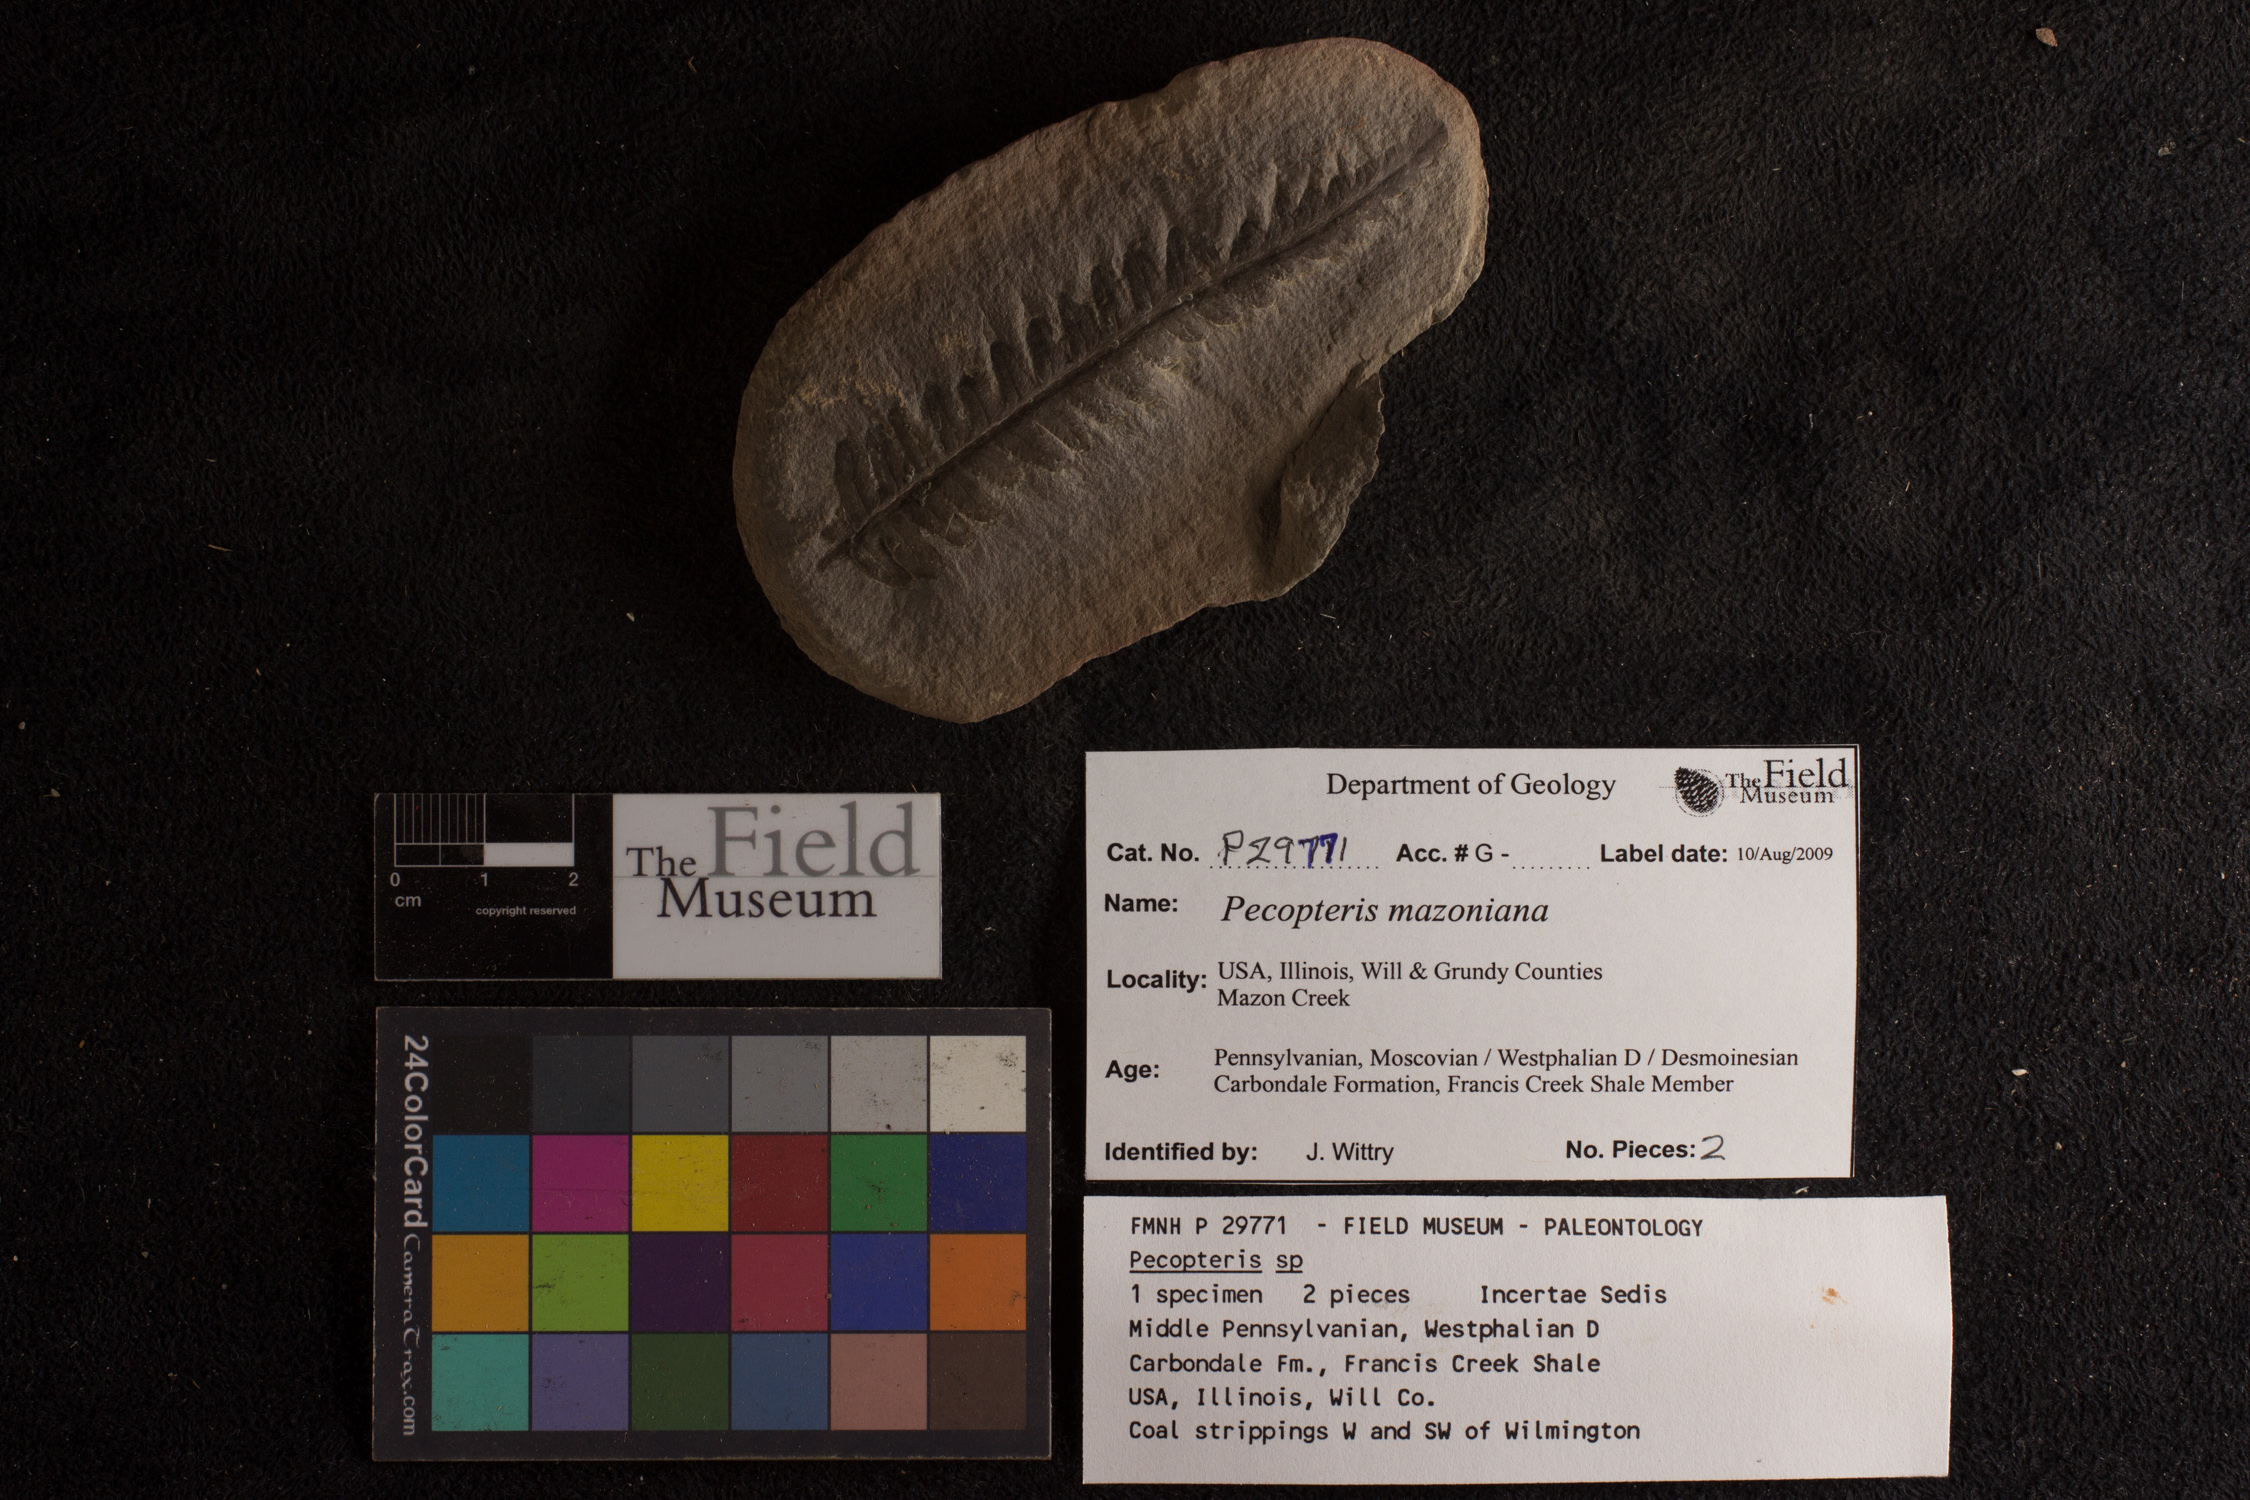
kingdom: Plantae
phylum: Tracheophyta
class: Polypodiopsida
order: Marattiales
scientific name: Marattiales
